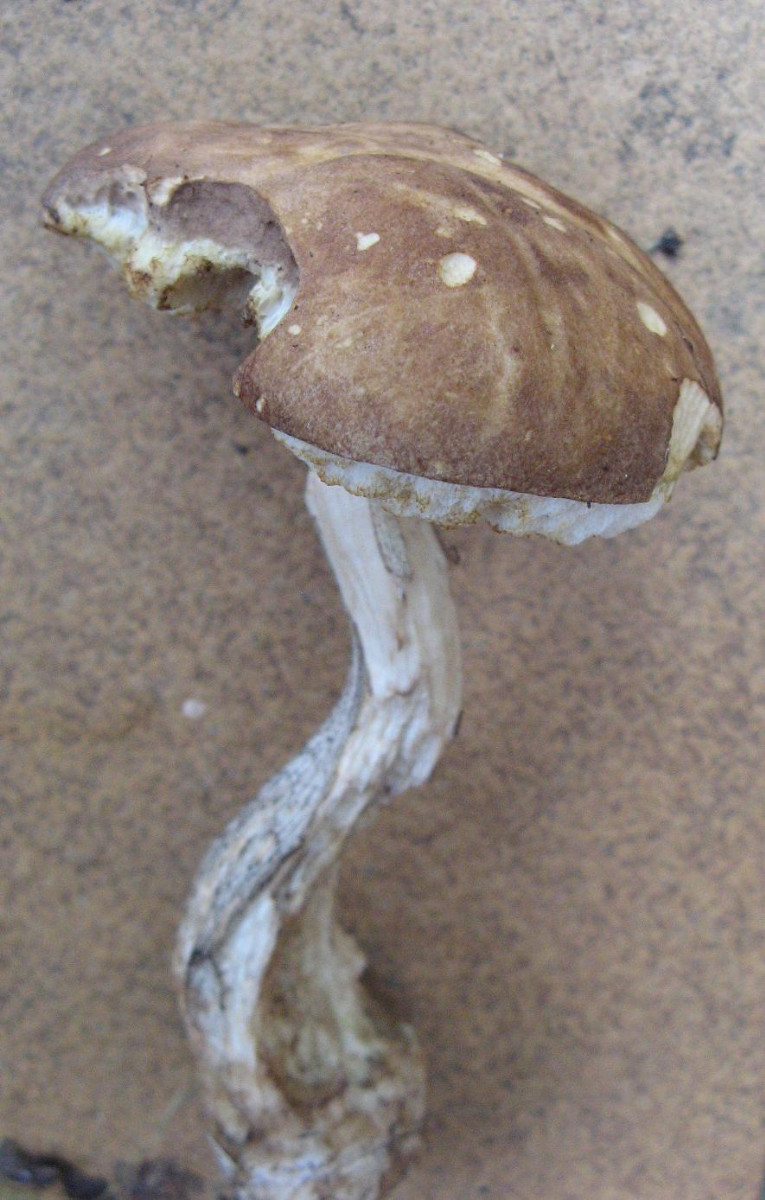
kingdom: Fungi
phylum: Basidiomycota
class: Agaricomycetes
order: Boletales
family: Boletaceae
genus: Leccinum
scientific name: Leccinum variicolor
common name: flammet skælrørhat
